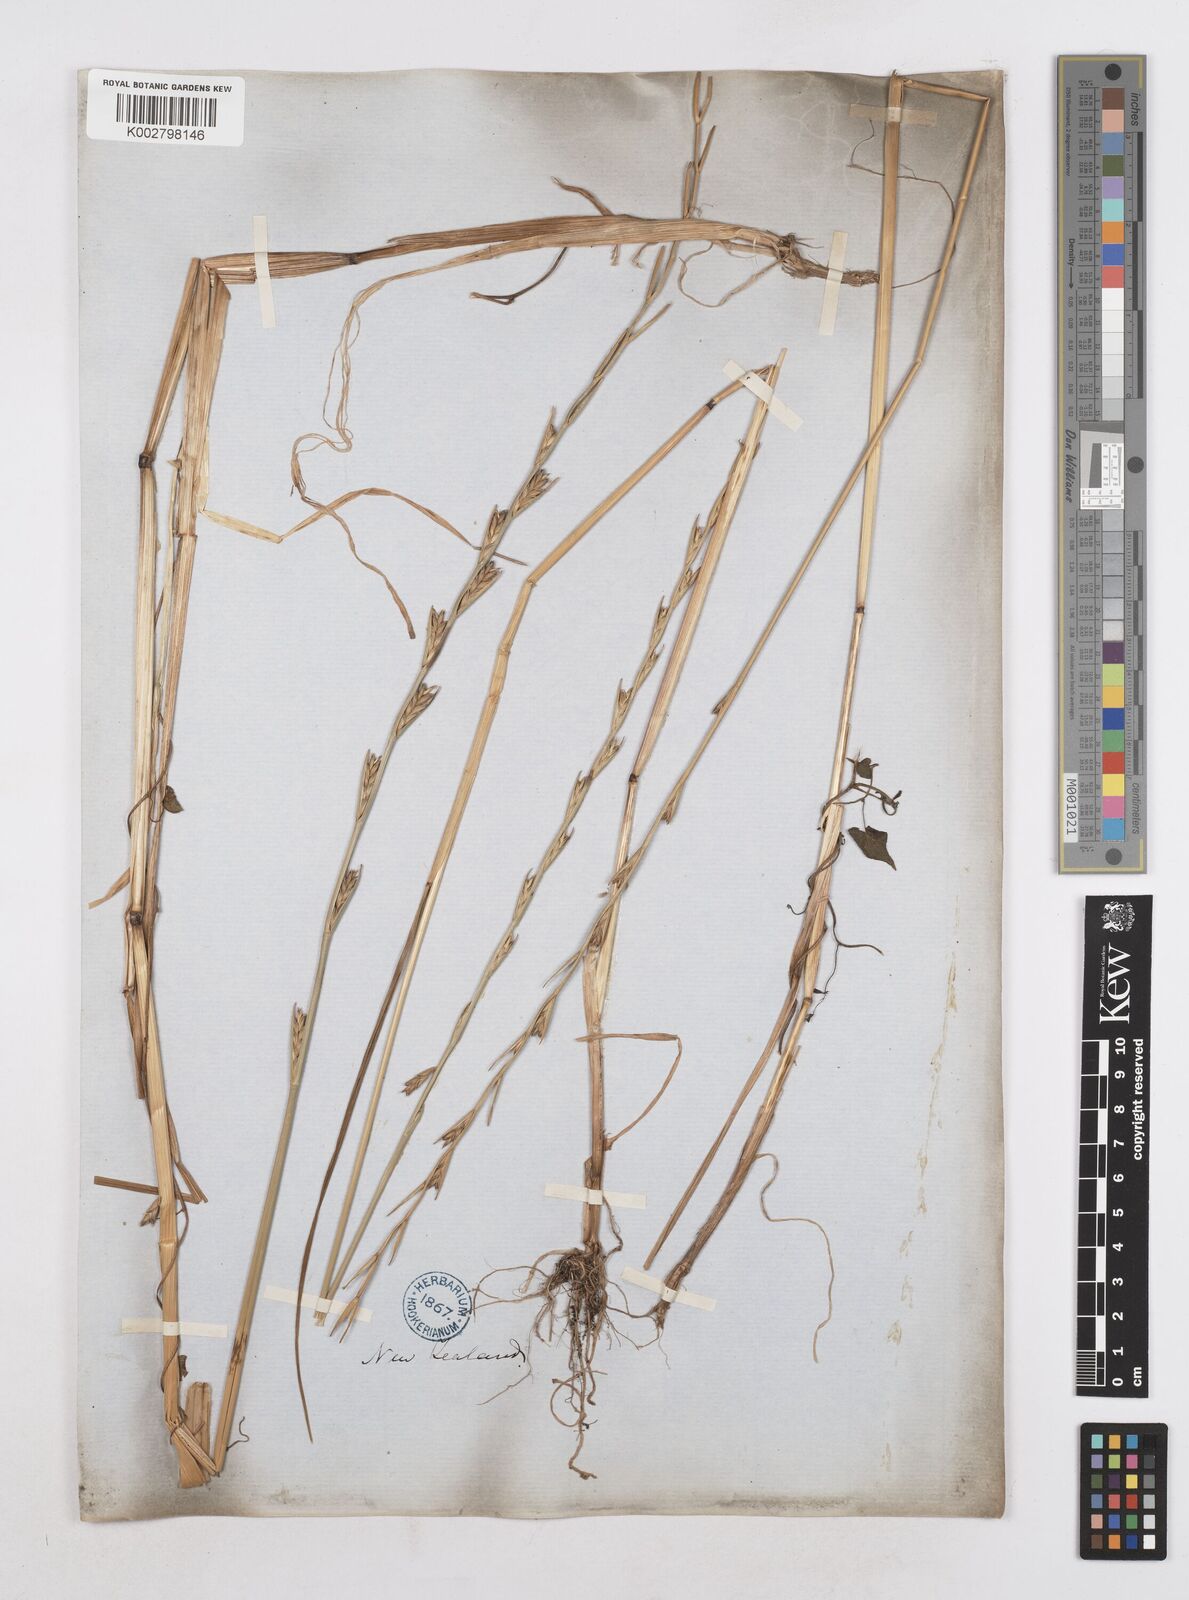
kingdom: Plantae
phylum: Tracheophyta
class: Liliopsida
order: Poales
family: Poaceae
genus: Lolium
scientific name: Lolium temulentum
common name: Darnel
